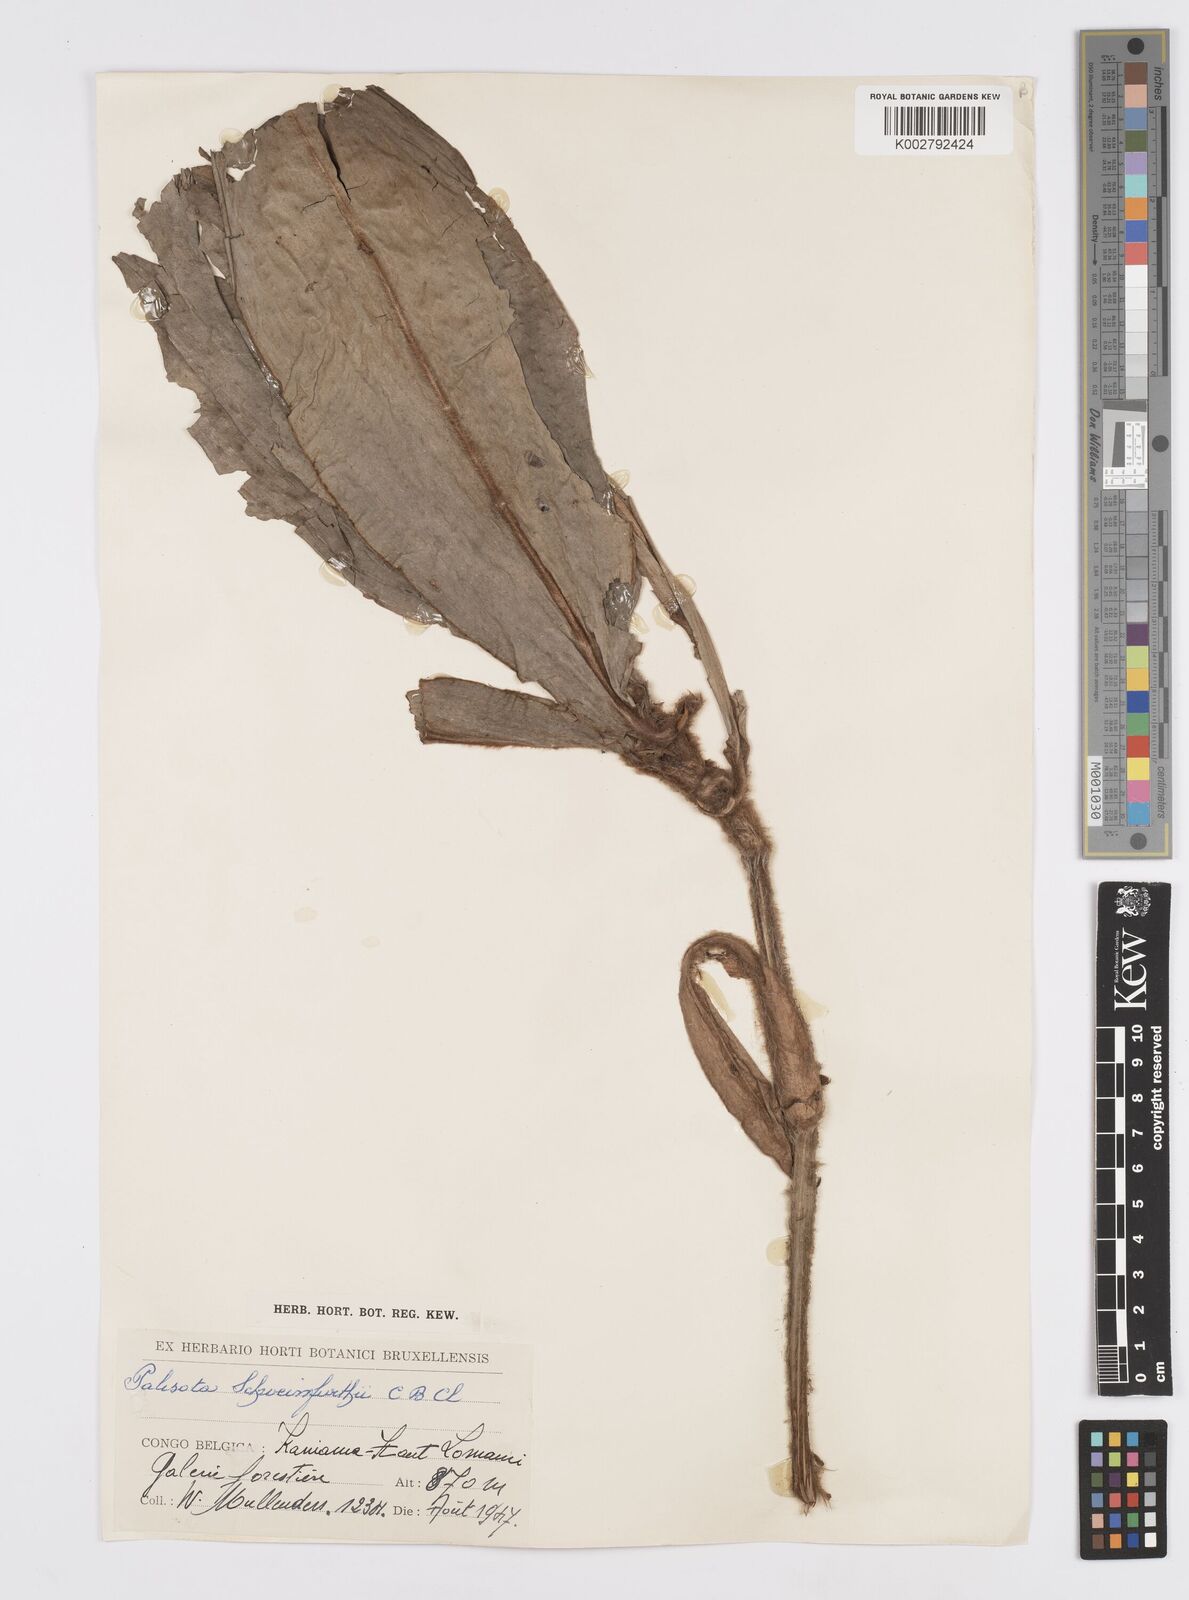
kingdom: Plantae
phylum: Tracheophyta
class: Liliopsida
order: Commelinales
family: Commelinaceae
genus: Palisota
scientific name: Palisota schweinfurthii
